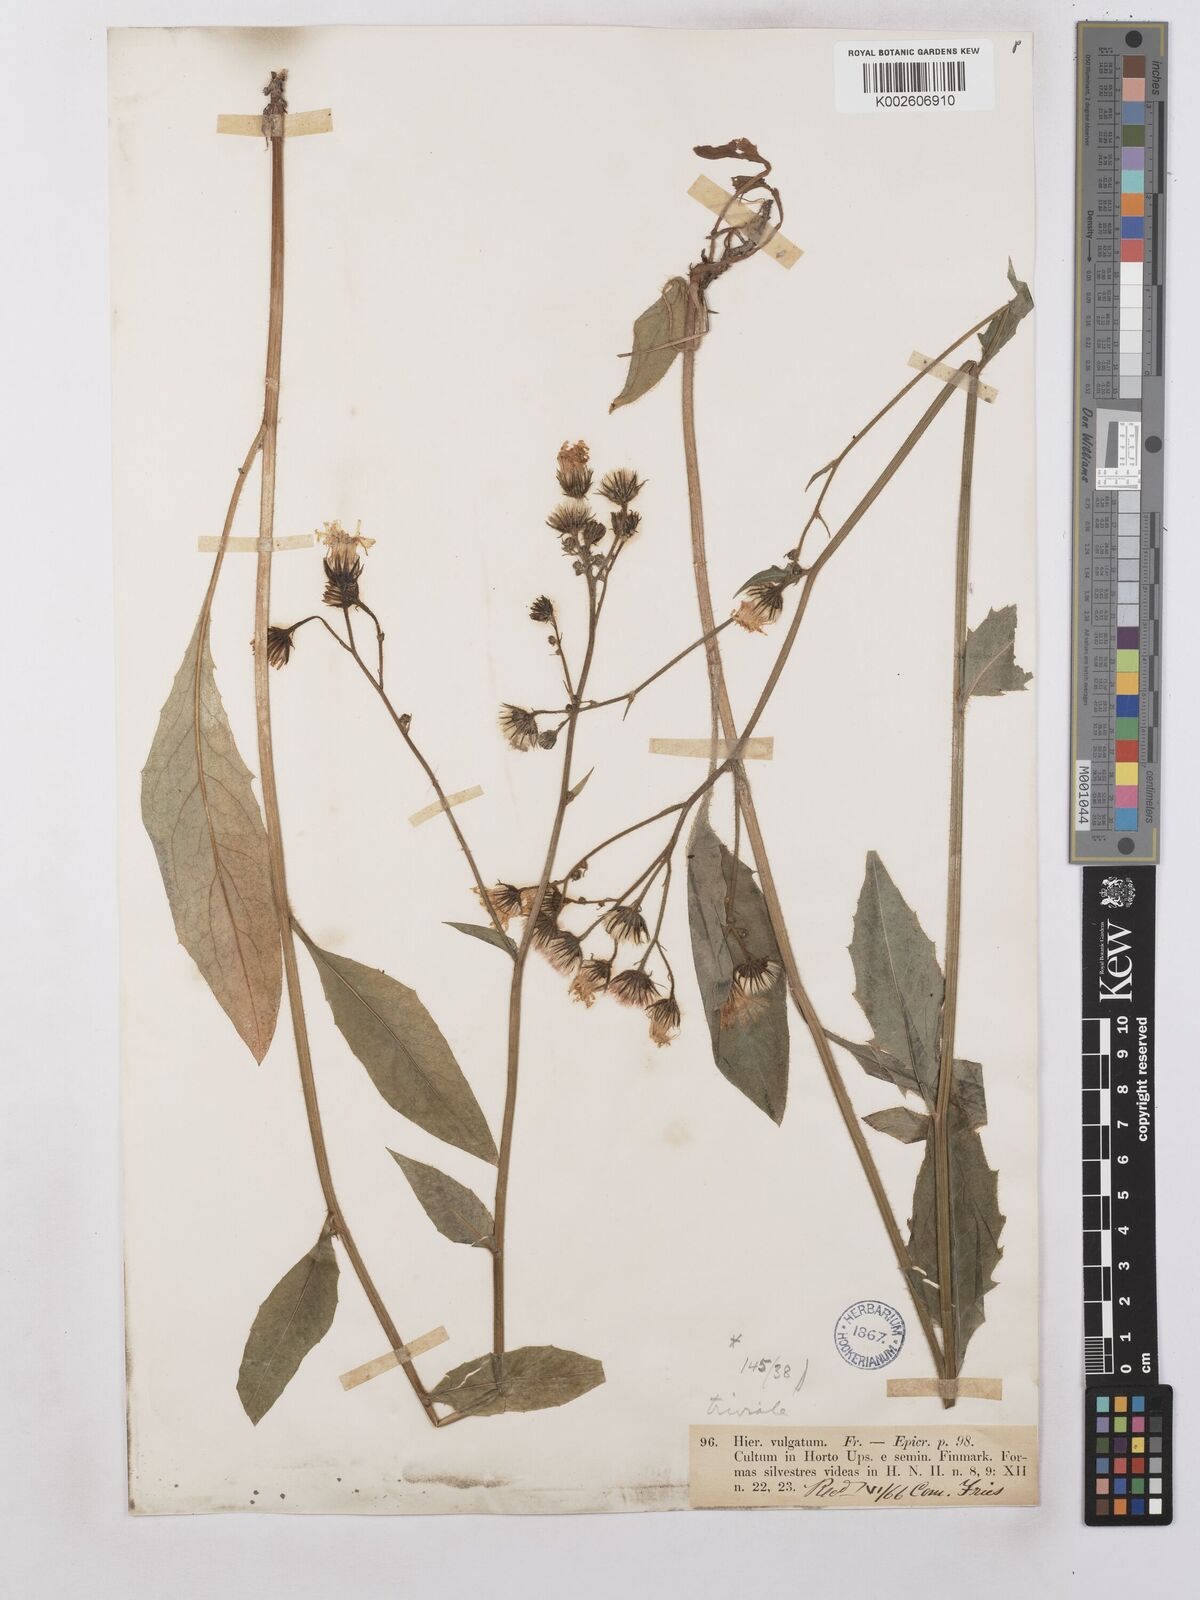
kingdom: Plantae
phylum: Tracheophyta
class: Magnoliopsida
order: Asterales
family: Asteraceae
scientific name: Asteraceae
